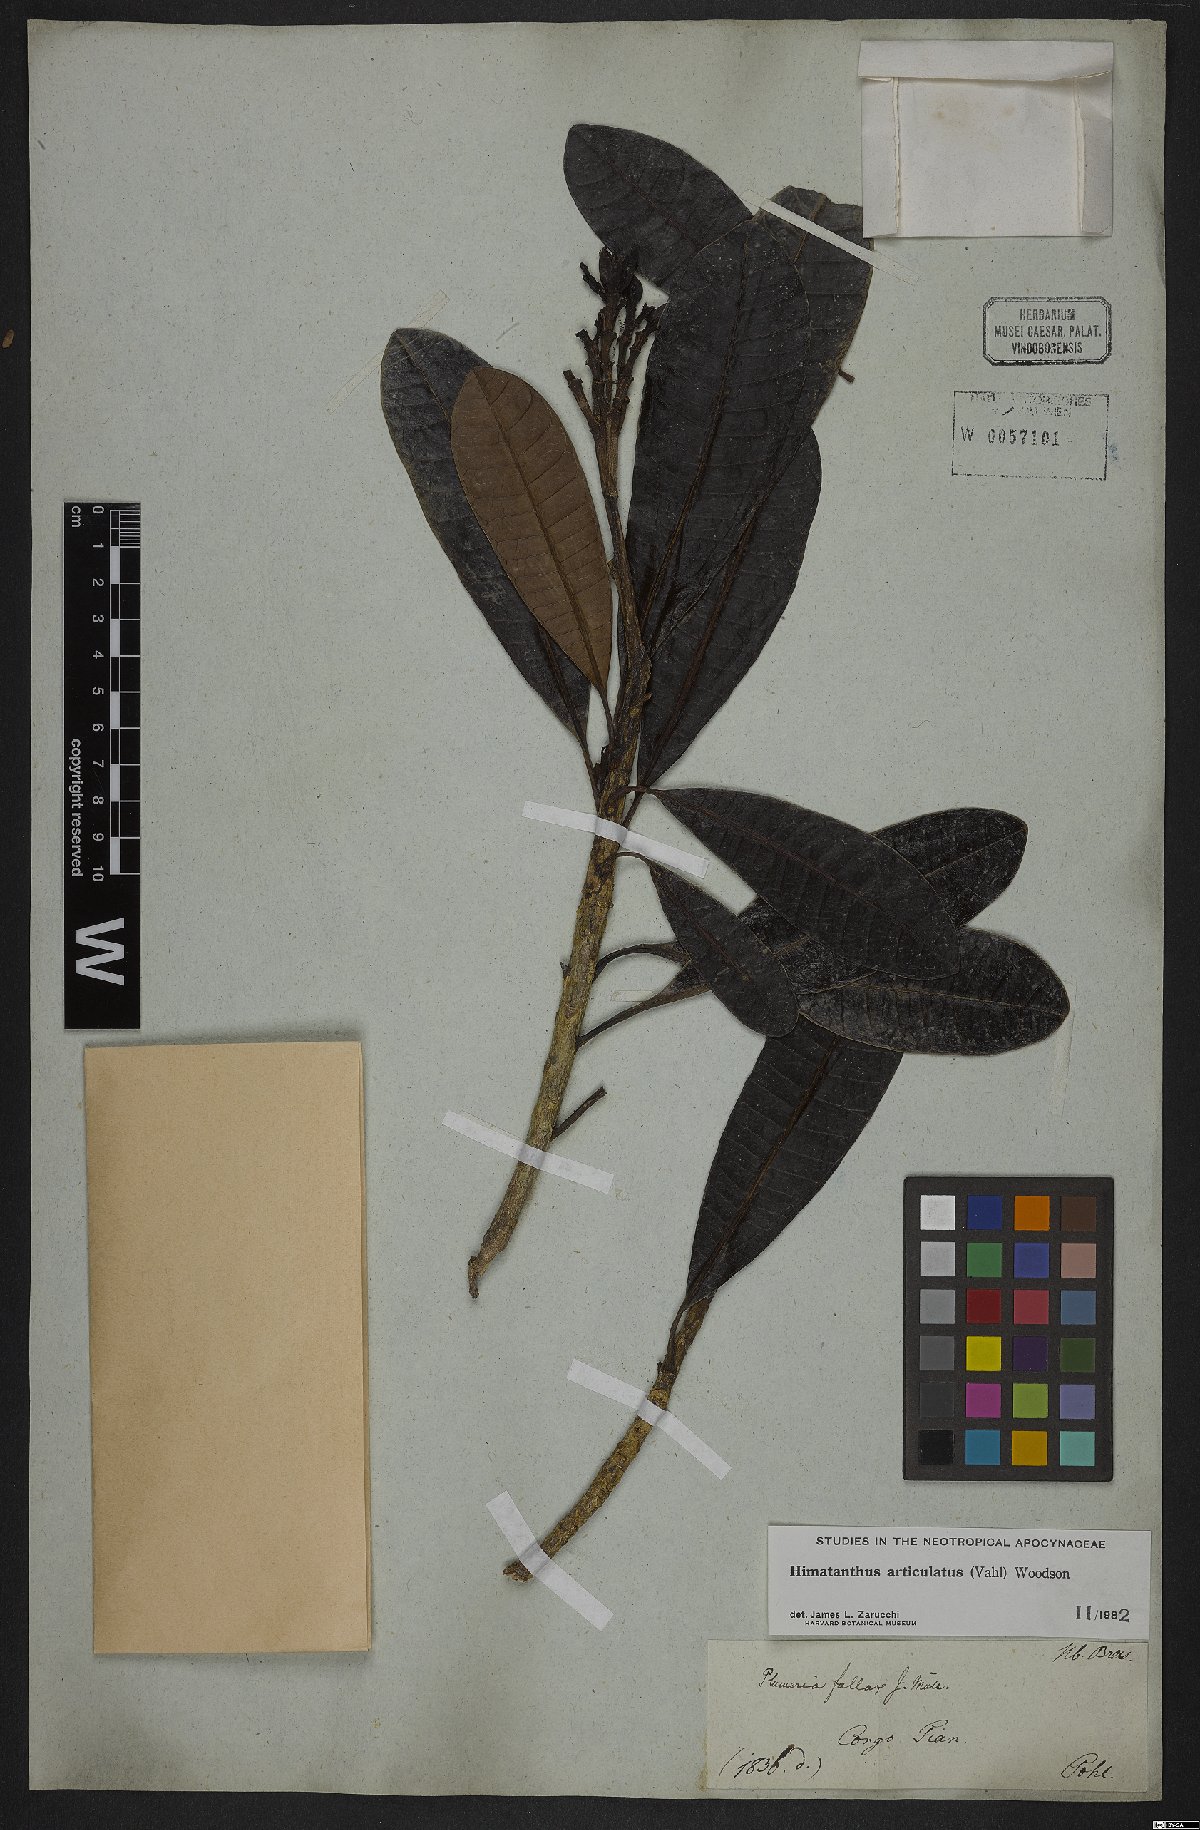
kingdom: Plantae
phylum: Tracheophyta
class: Magnoliopsida
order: Gentianales
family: Apocynaceae
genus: Himatanthus
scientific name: Himatanthus articulatus
